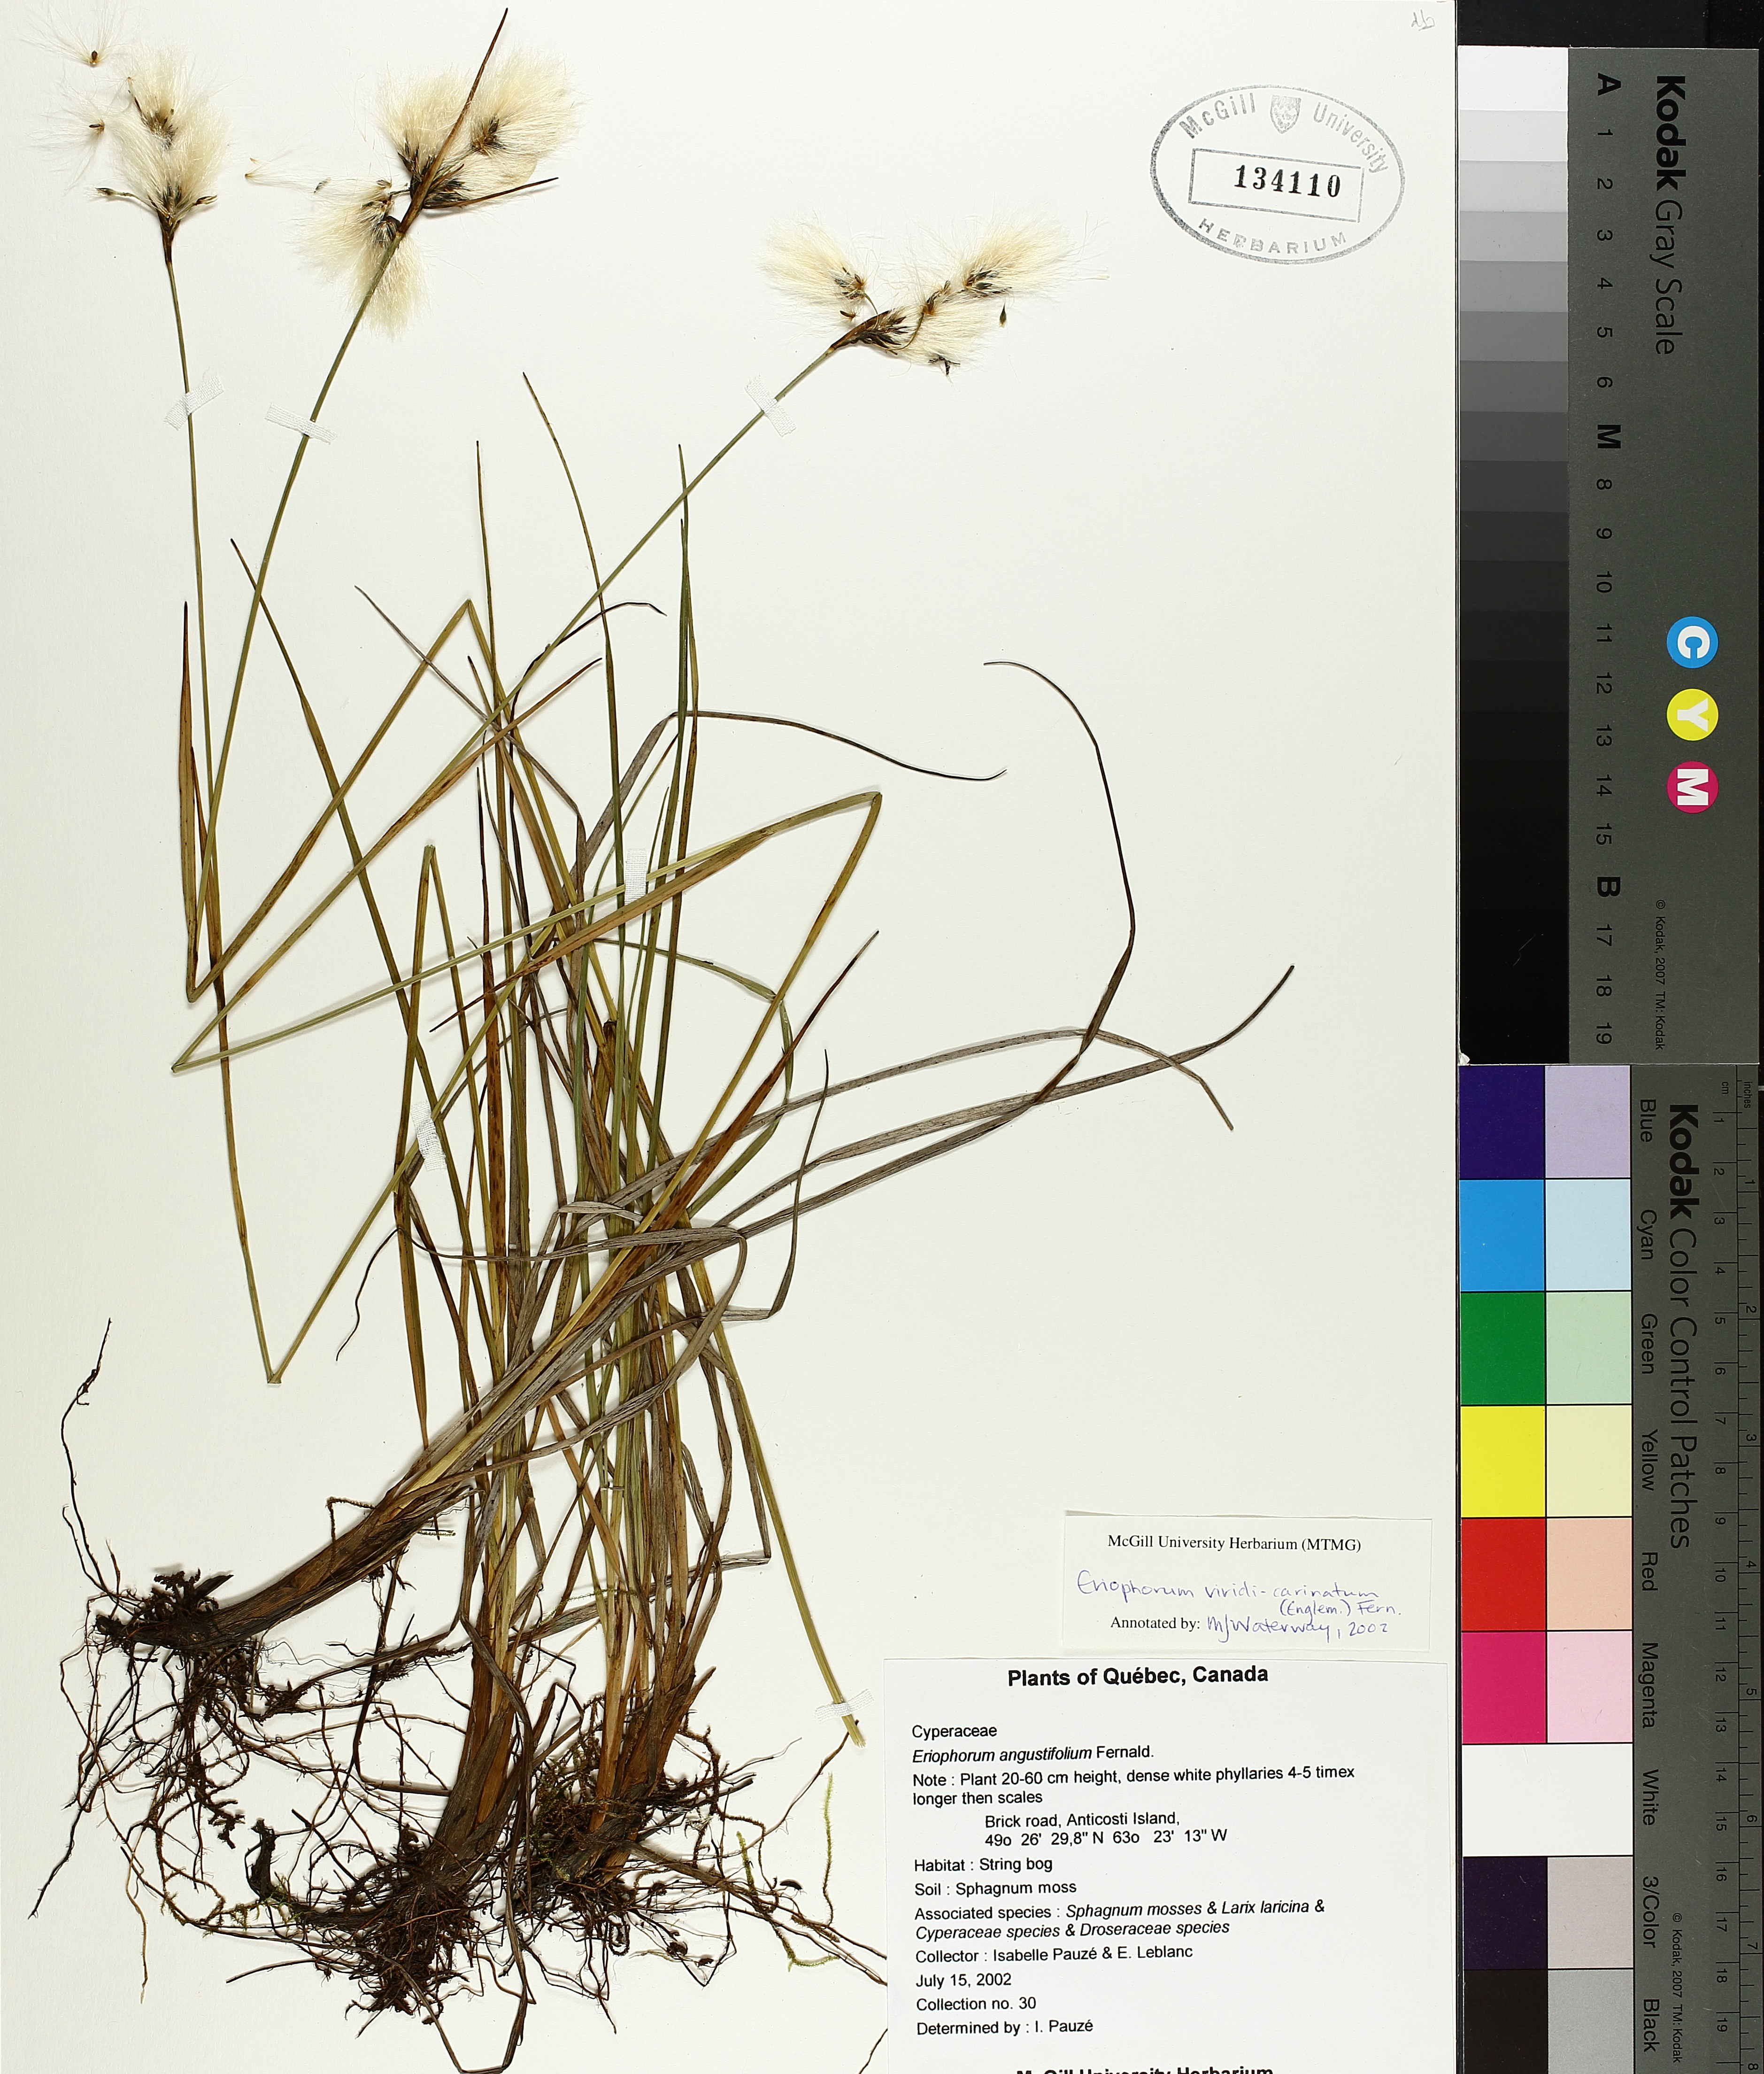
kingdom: Plantae
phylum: Tracheophyta
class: Liliopsida
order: Poales
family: Cyperaceae
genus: Eriophorum
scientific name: Eriophorum viridicarinatum
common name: Green-keeled cottongrass
